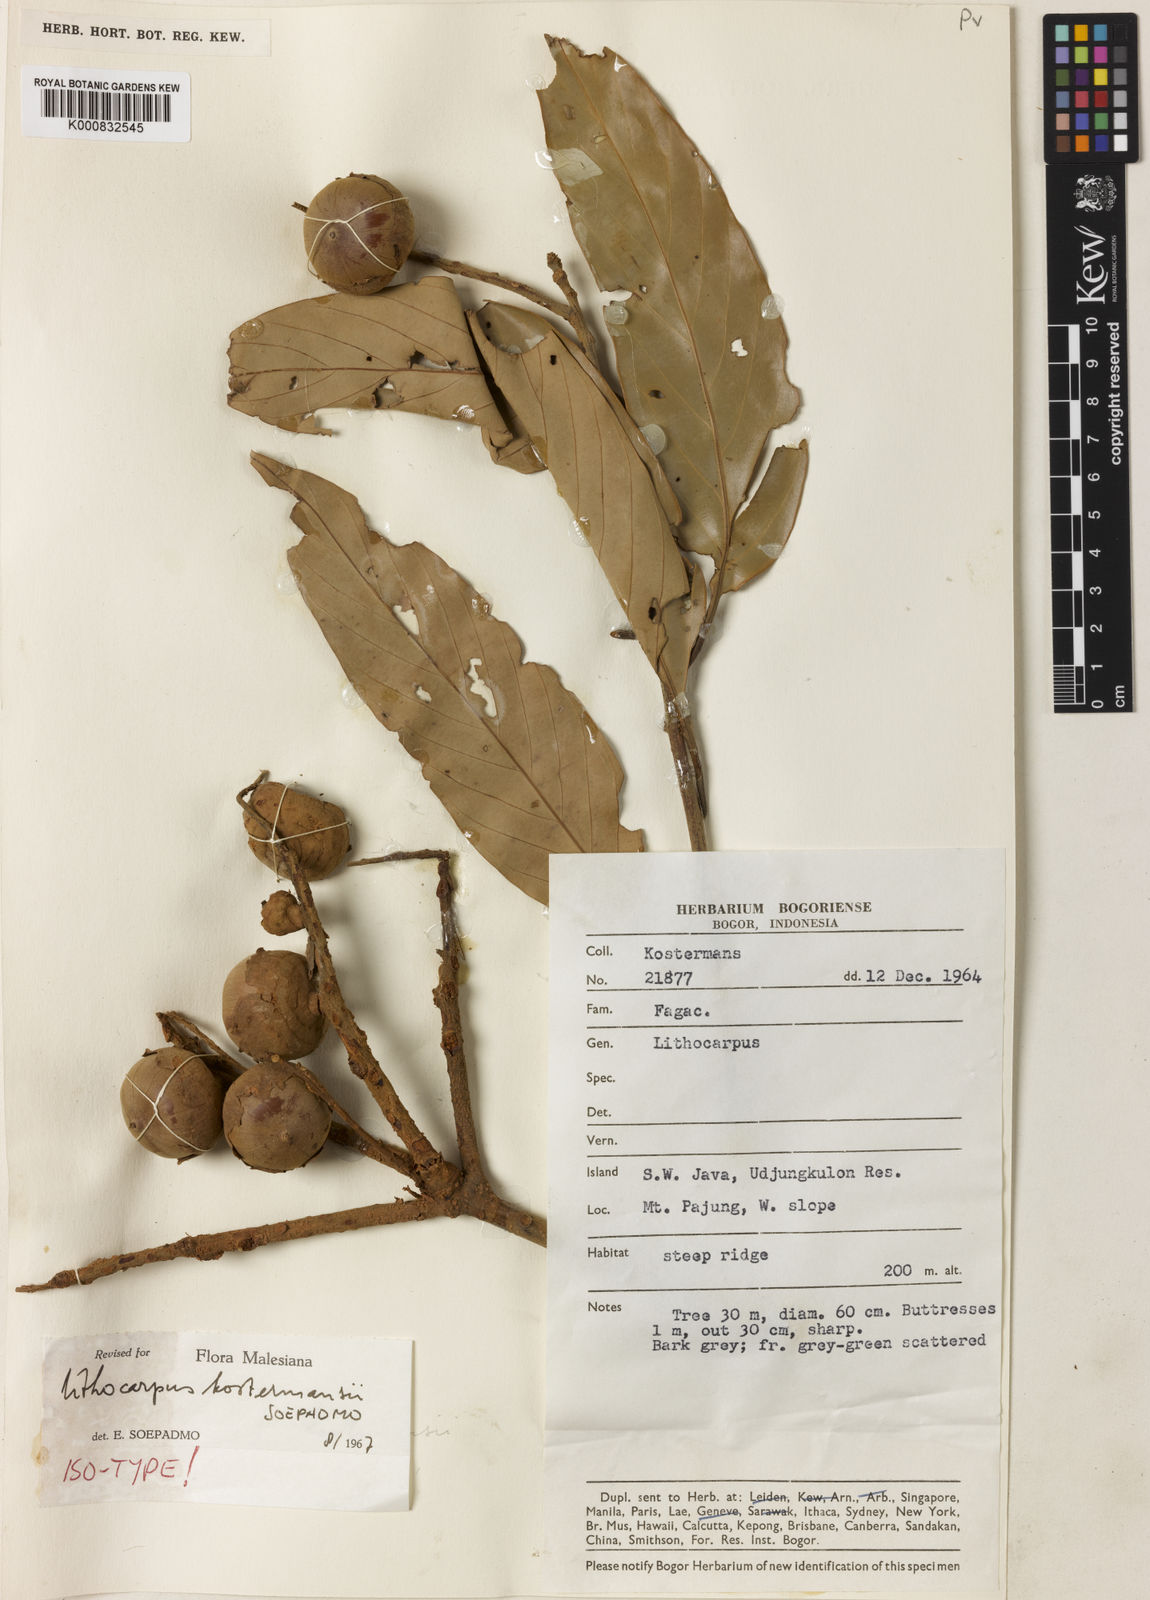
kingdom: Plantae
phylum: Tracheophyta
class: Magnoliopsida
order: Fagales
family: Fagaceae
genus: Lithocarpus
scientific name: Lithocarpus kostermansii
